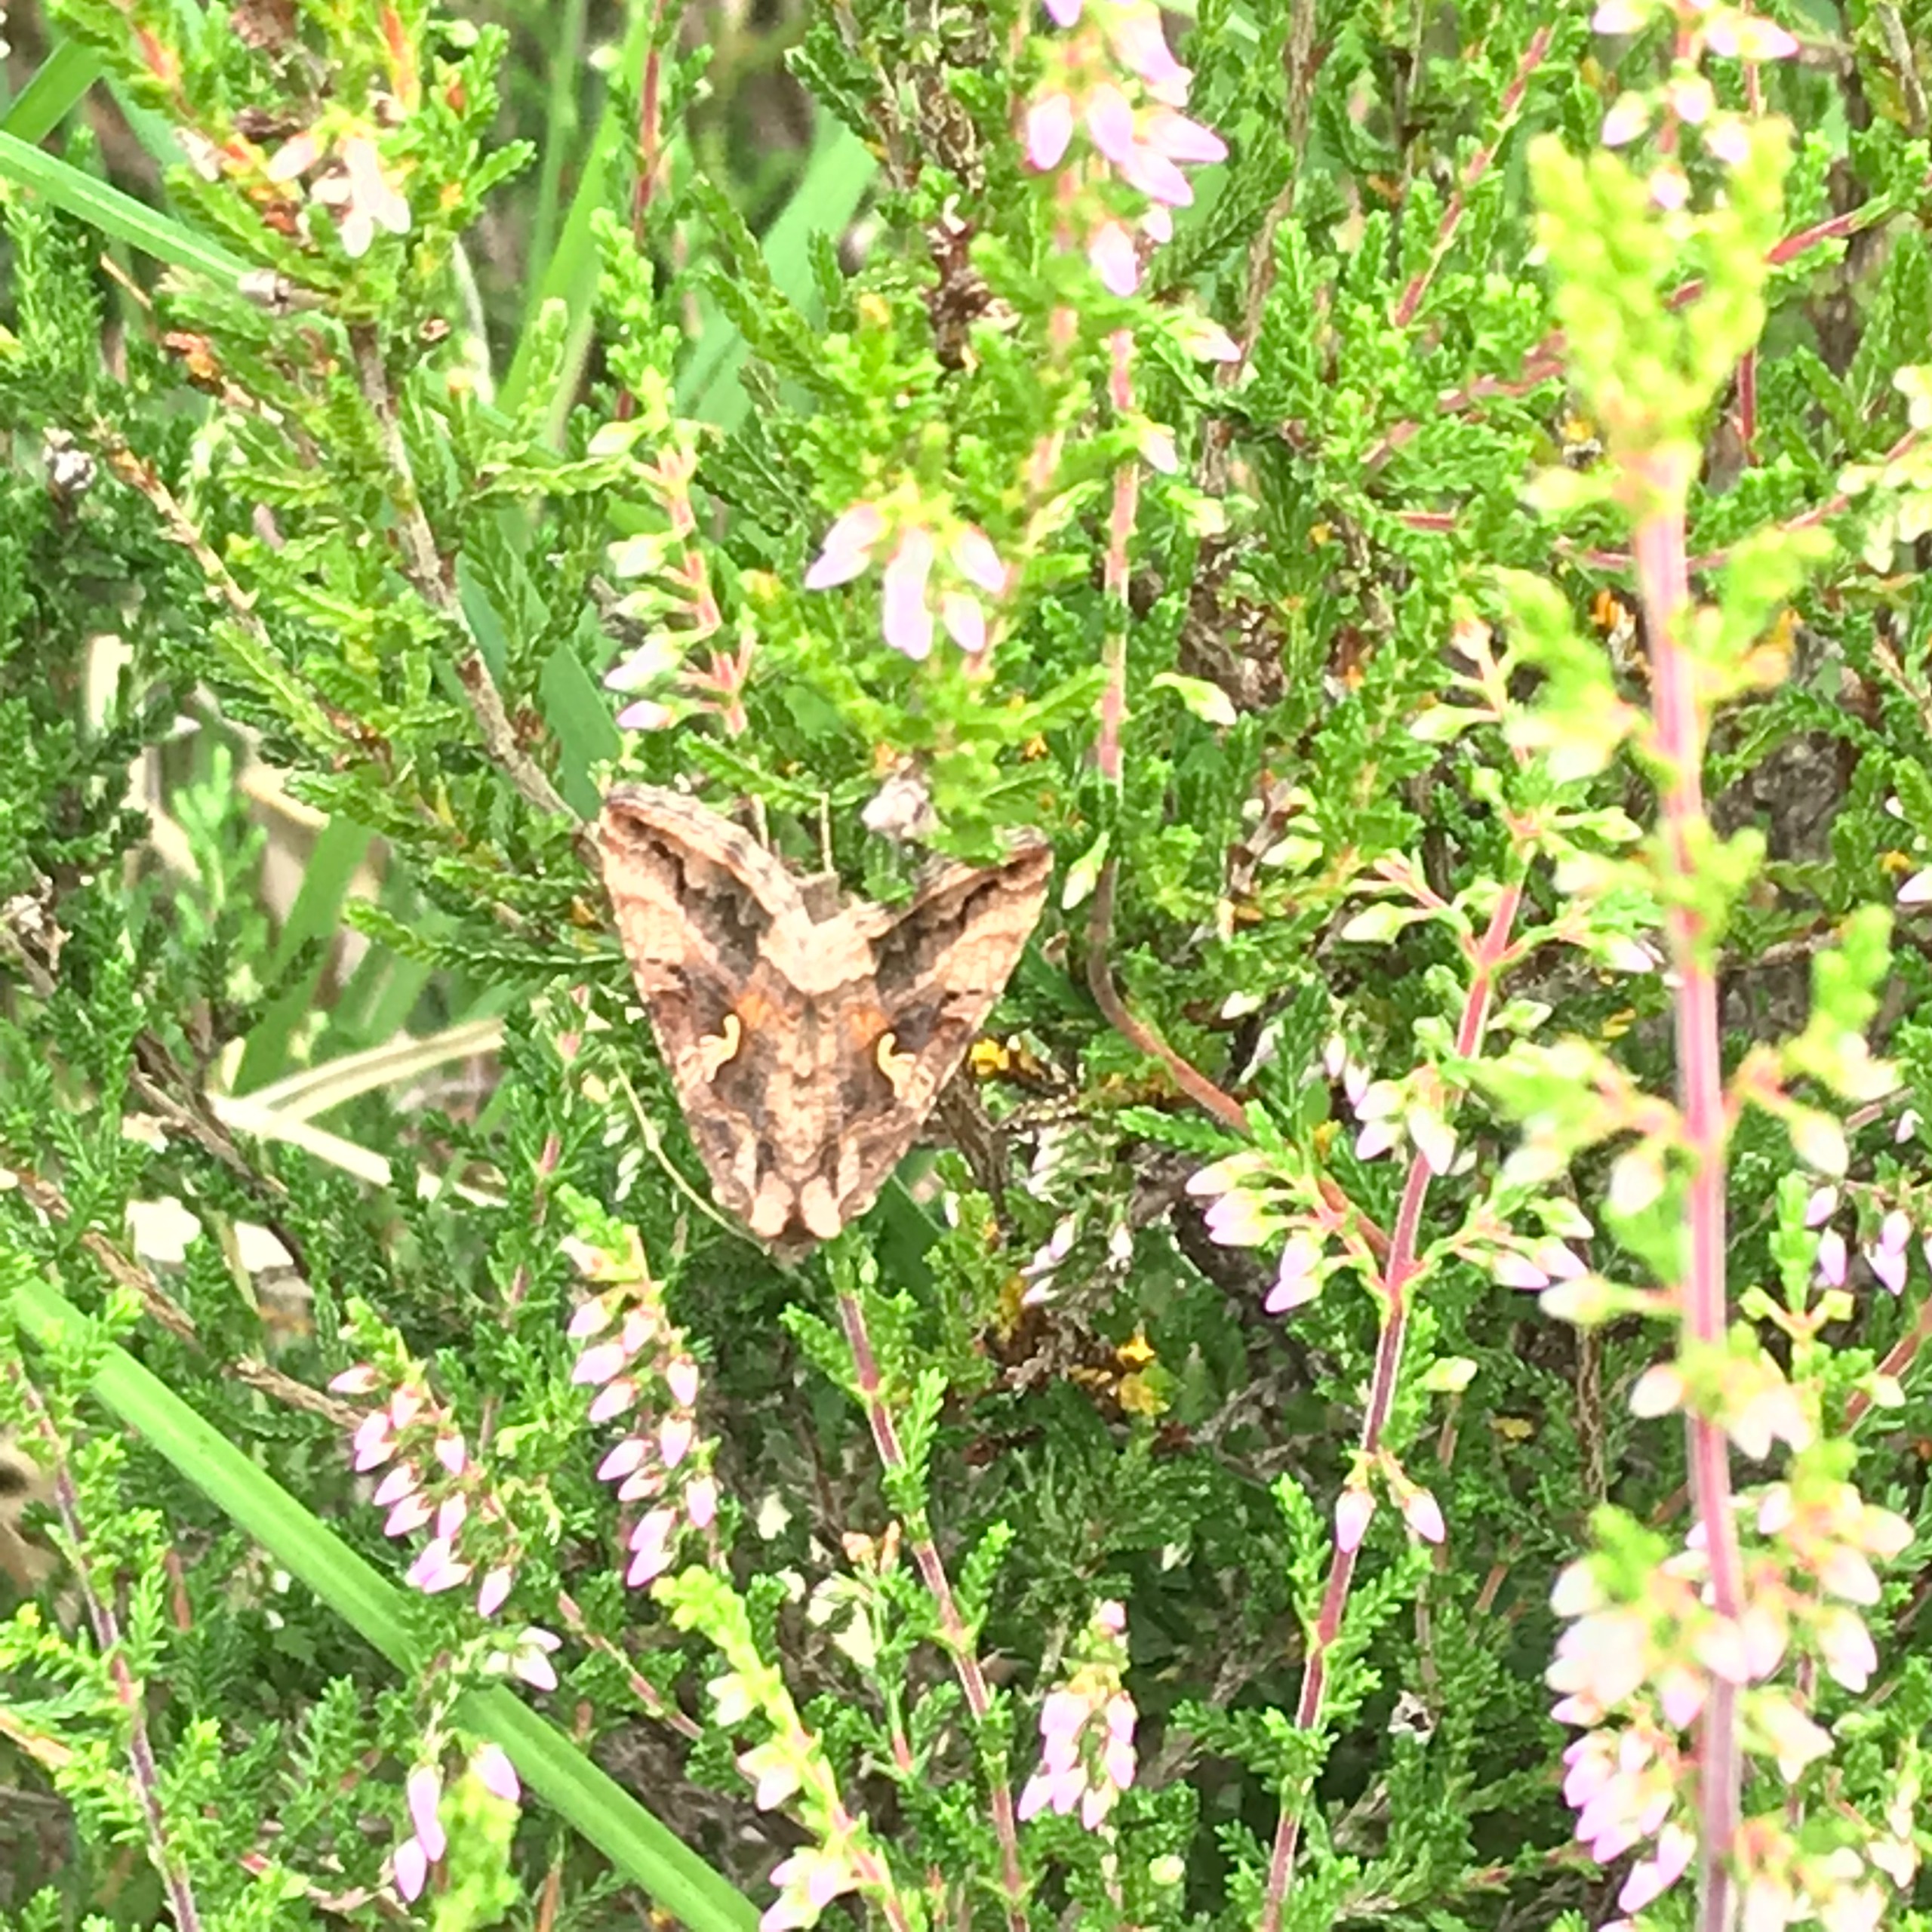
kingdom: Animalia
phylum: Arthropoda
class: Insecta
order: Lepidoptera
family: Noctuidae
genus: Autographa
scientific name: Autographa gamma
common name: Gammaugle
